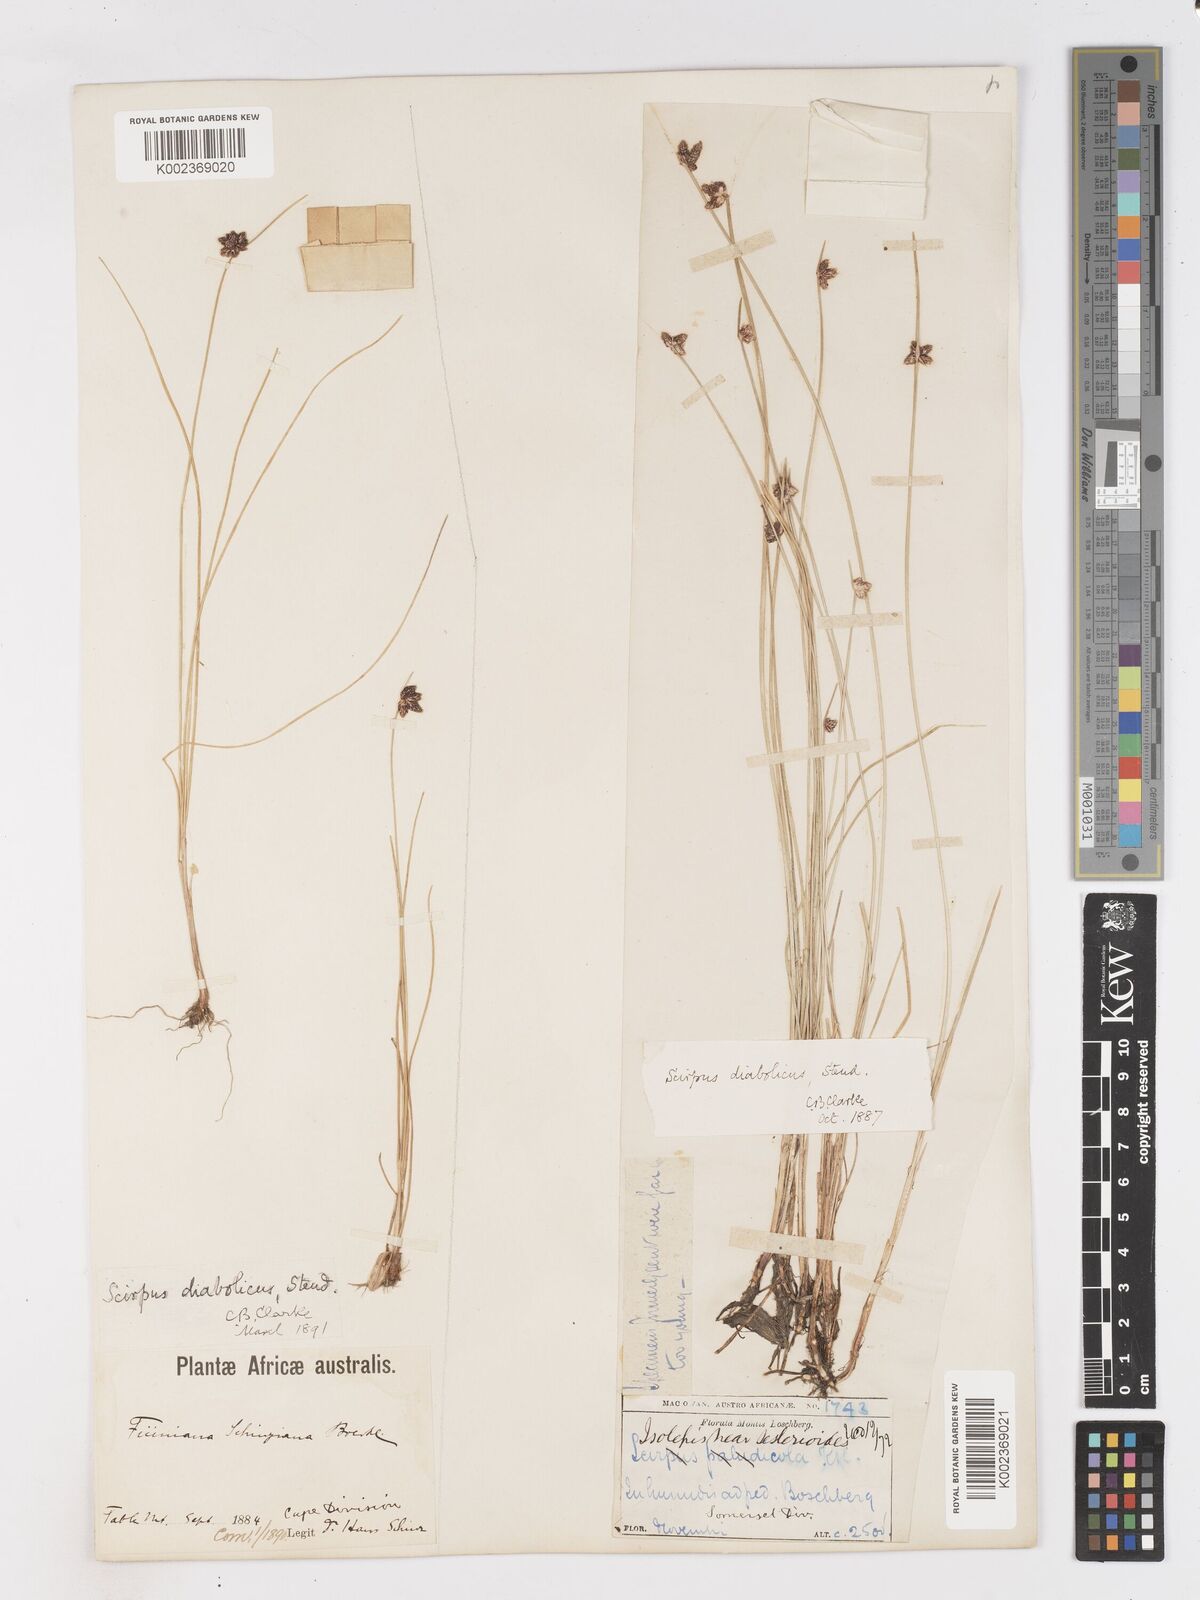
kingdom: Plantae
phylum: Tracheophyta
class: Liliopsida
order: Poales
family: Cyperaceae
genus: Isolepis
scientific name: Isolepis diabolica
